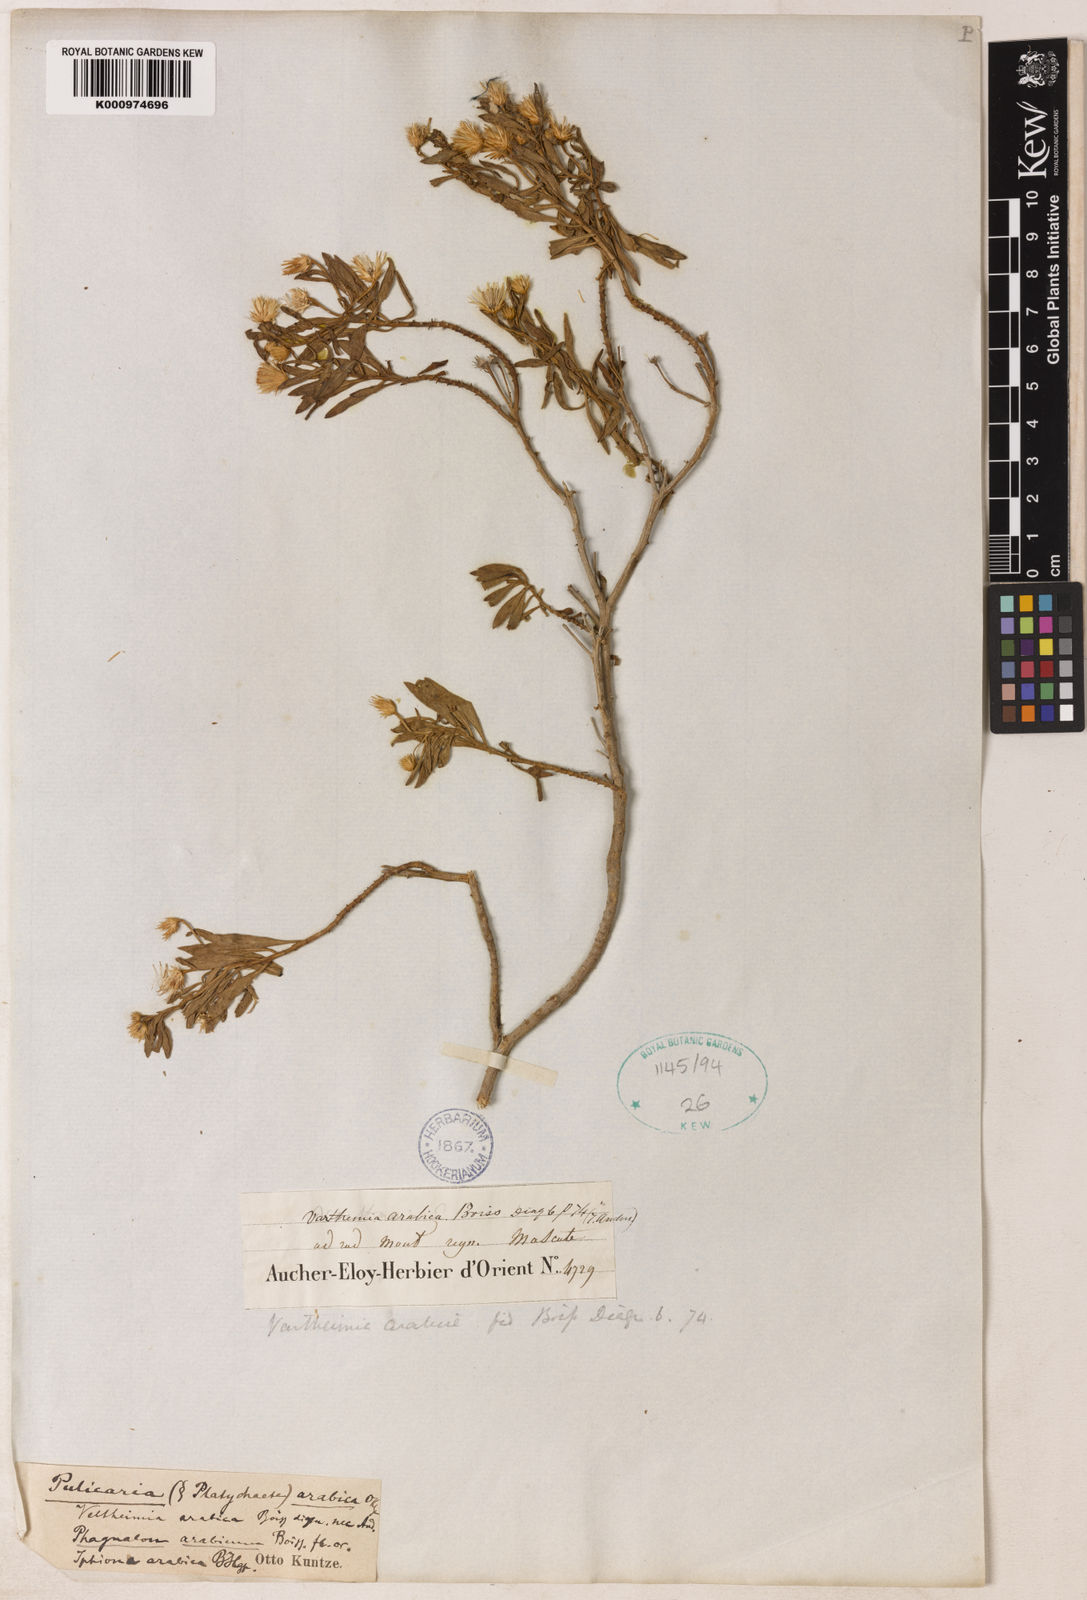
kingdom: Plantae
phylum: Tracheophyta
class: Magnoliopsida
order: Asterales
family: Asteraceae
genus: Pluchea
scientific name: Pluchea arabica
